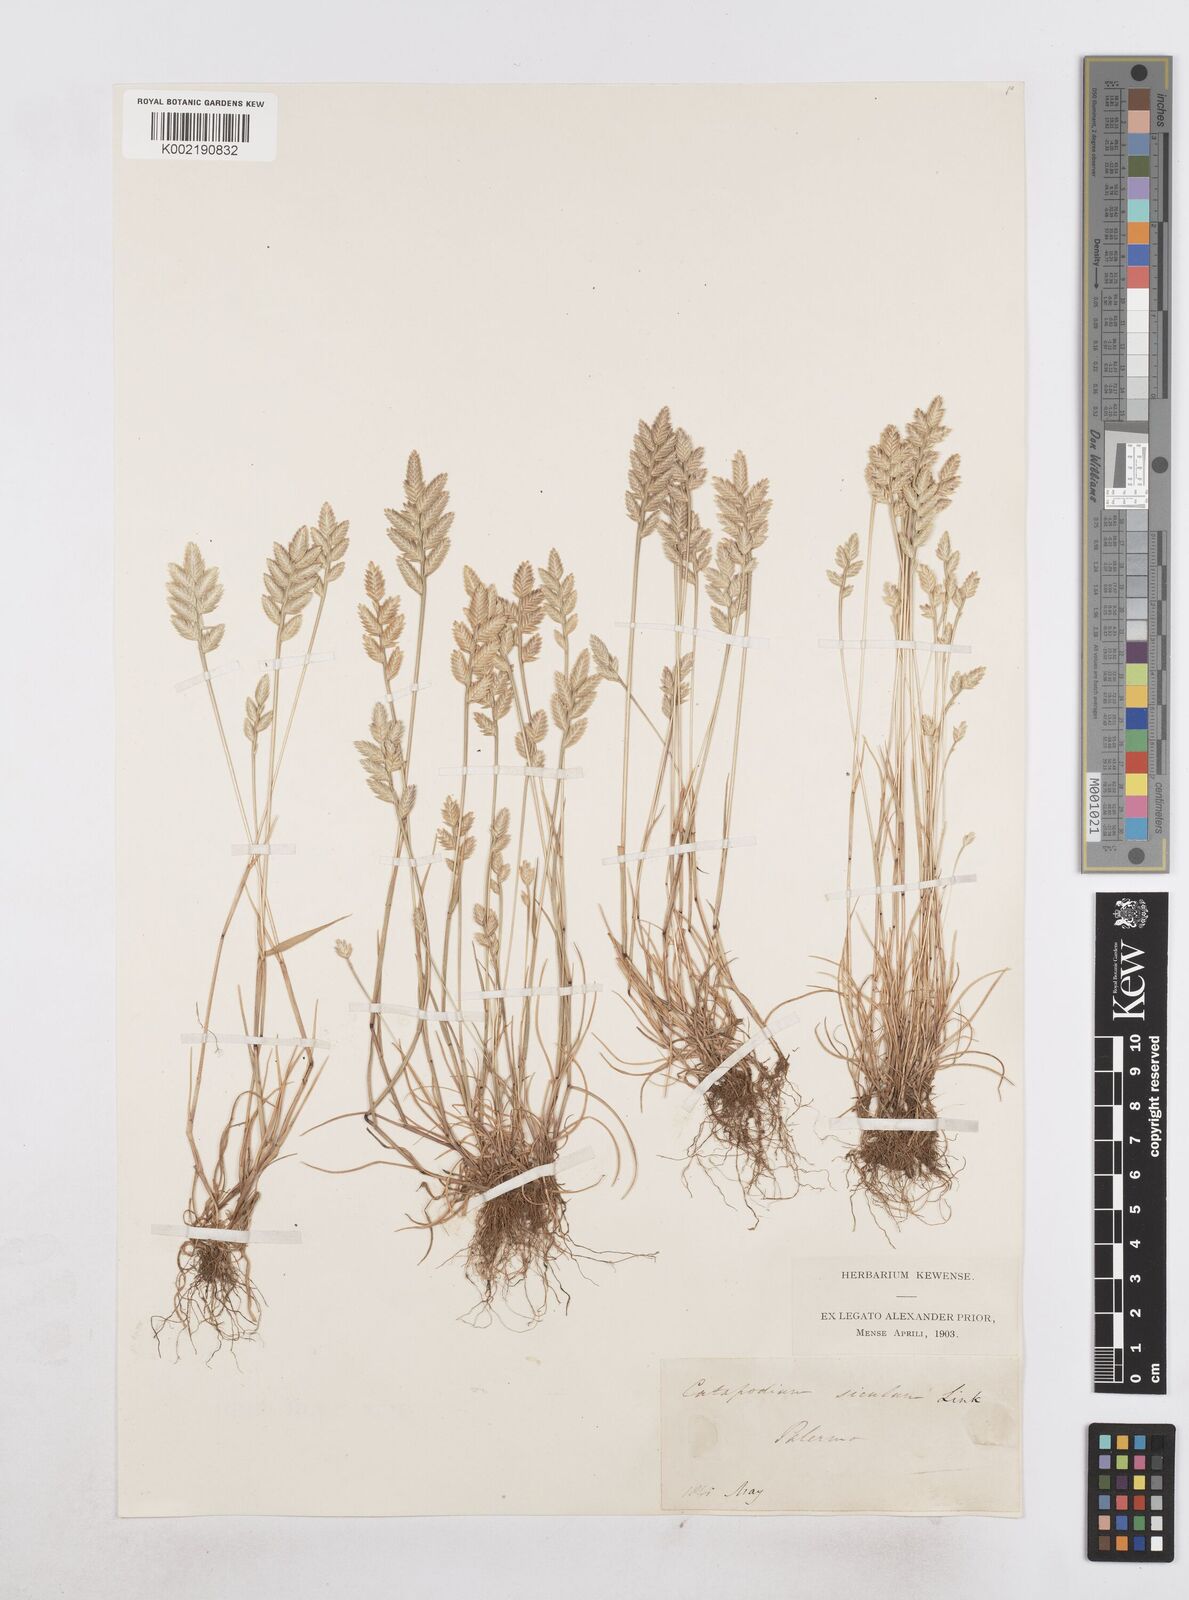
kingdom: Plantae
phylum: Tracheophyta
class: Liliopsida
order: Poales
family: Poaceae
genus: Desmazeria
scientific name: Desmazeria sicula
